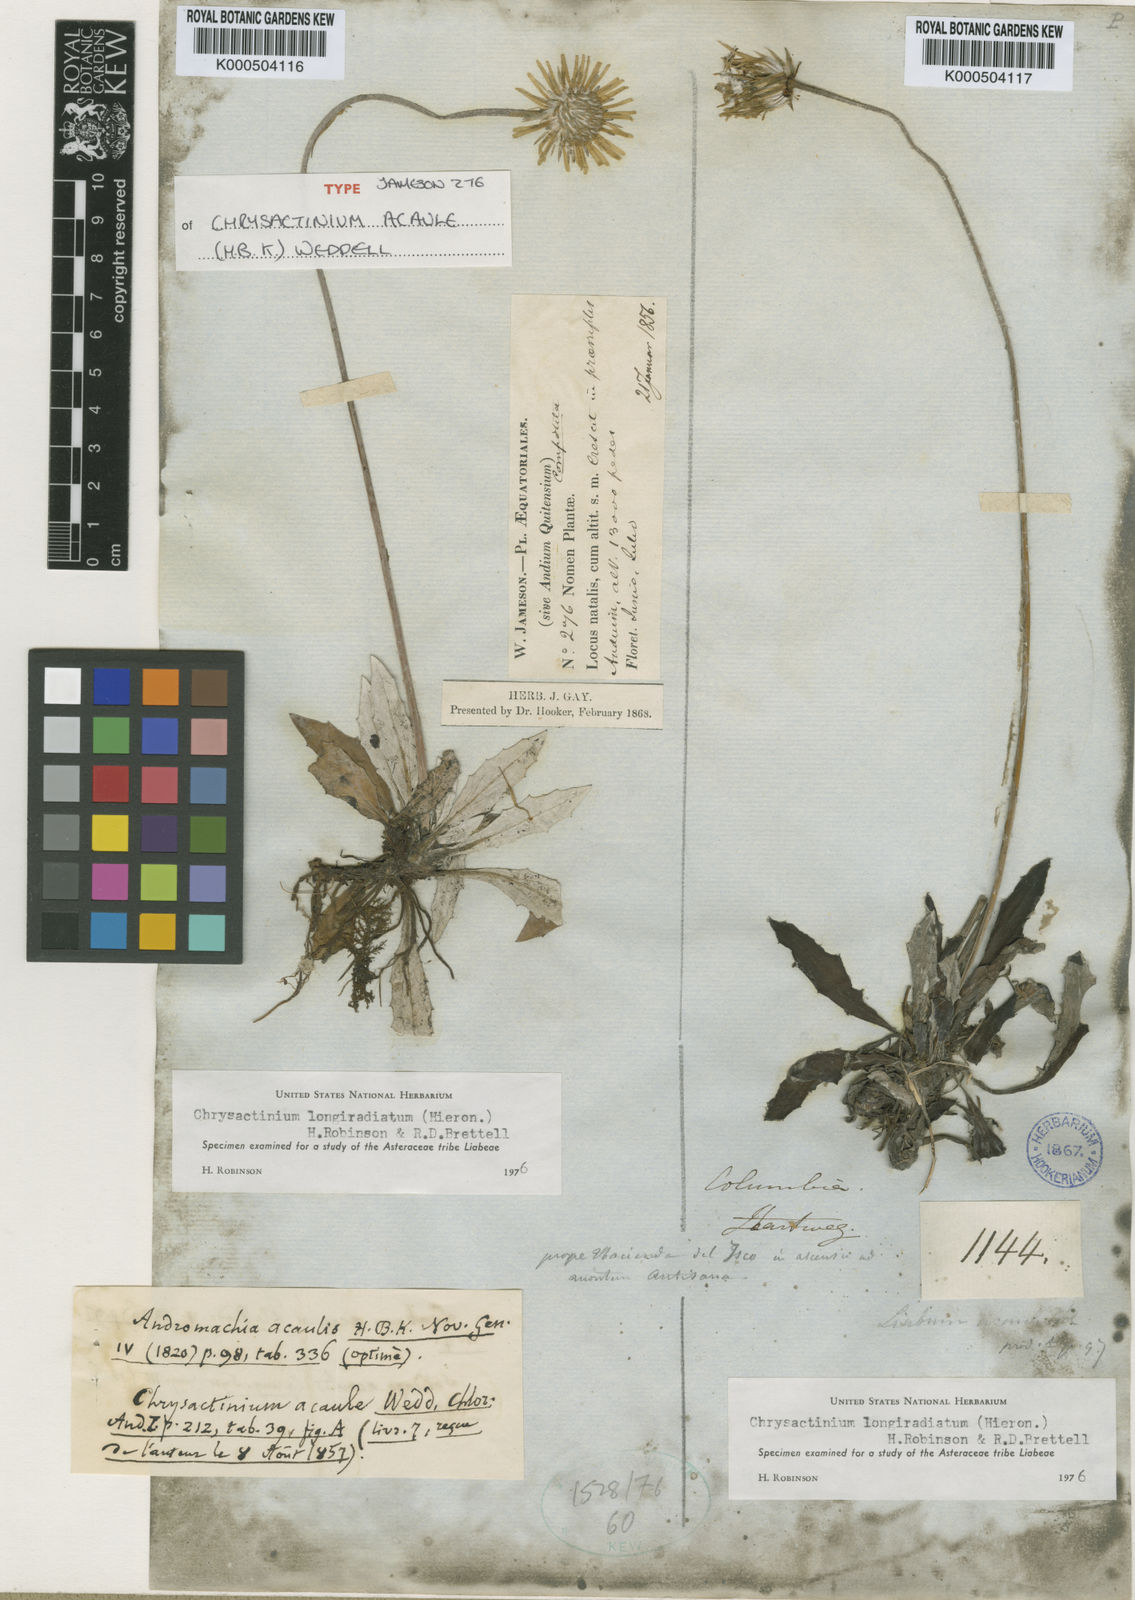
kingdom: Plantae
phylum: Tracheophyta
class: Magnoliopsida
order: Asterales
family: Asteraceae
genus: Chrysactinium
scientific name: Chrysactinium acaule
